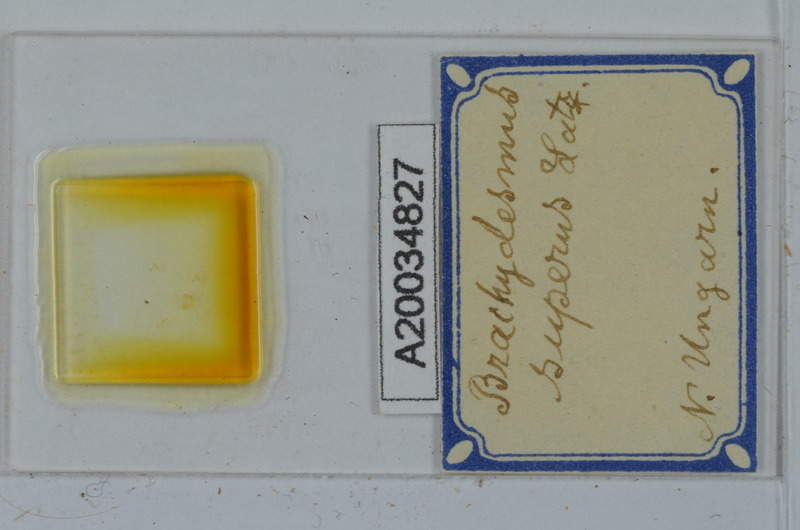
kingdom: Animalia
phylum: Arthropoda
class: Diplopoda
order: Polydesmida
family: Polydesmidae
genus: Brachydesmus
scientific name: Brachydesmus superus
